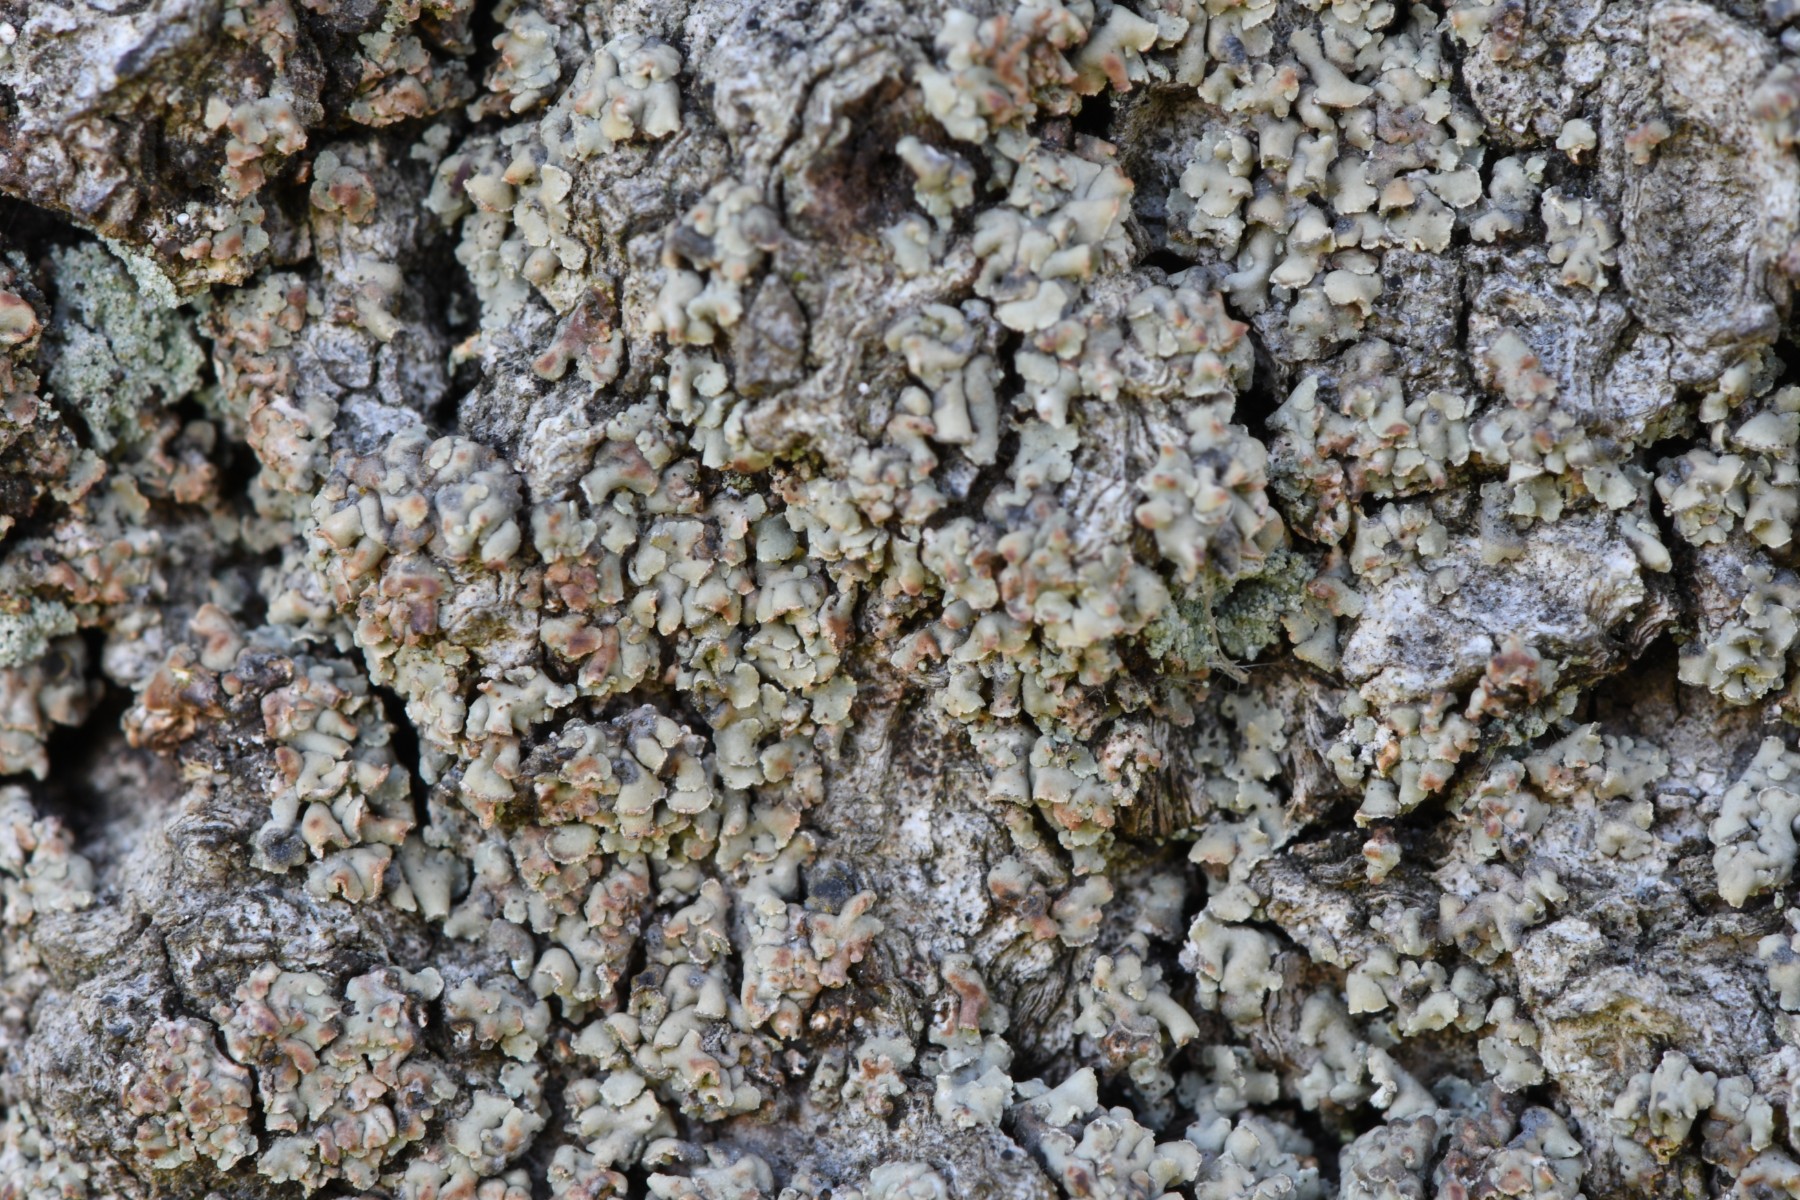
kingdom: Fungi
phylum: Ascomycota
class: Lecanoromycetes
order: Umbilicariales
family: Ophioparmaceae
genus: Hypocenomyce
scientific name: Hypocenomyce scalaris
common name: småskællet muslinglav
